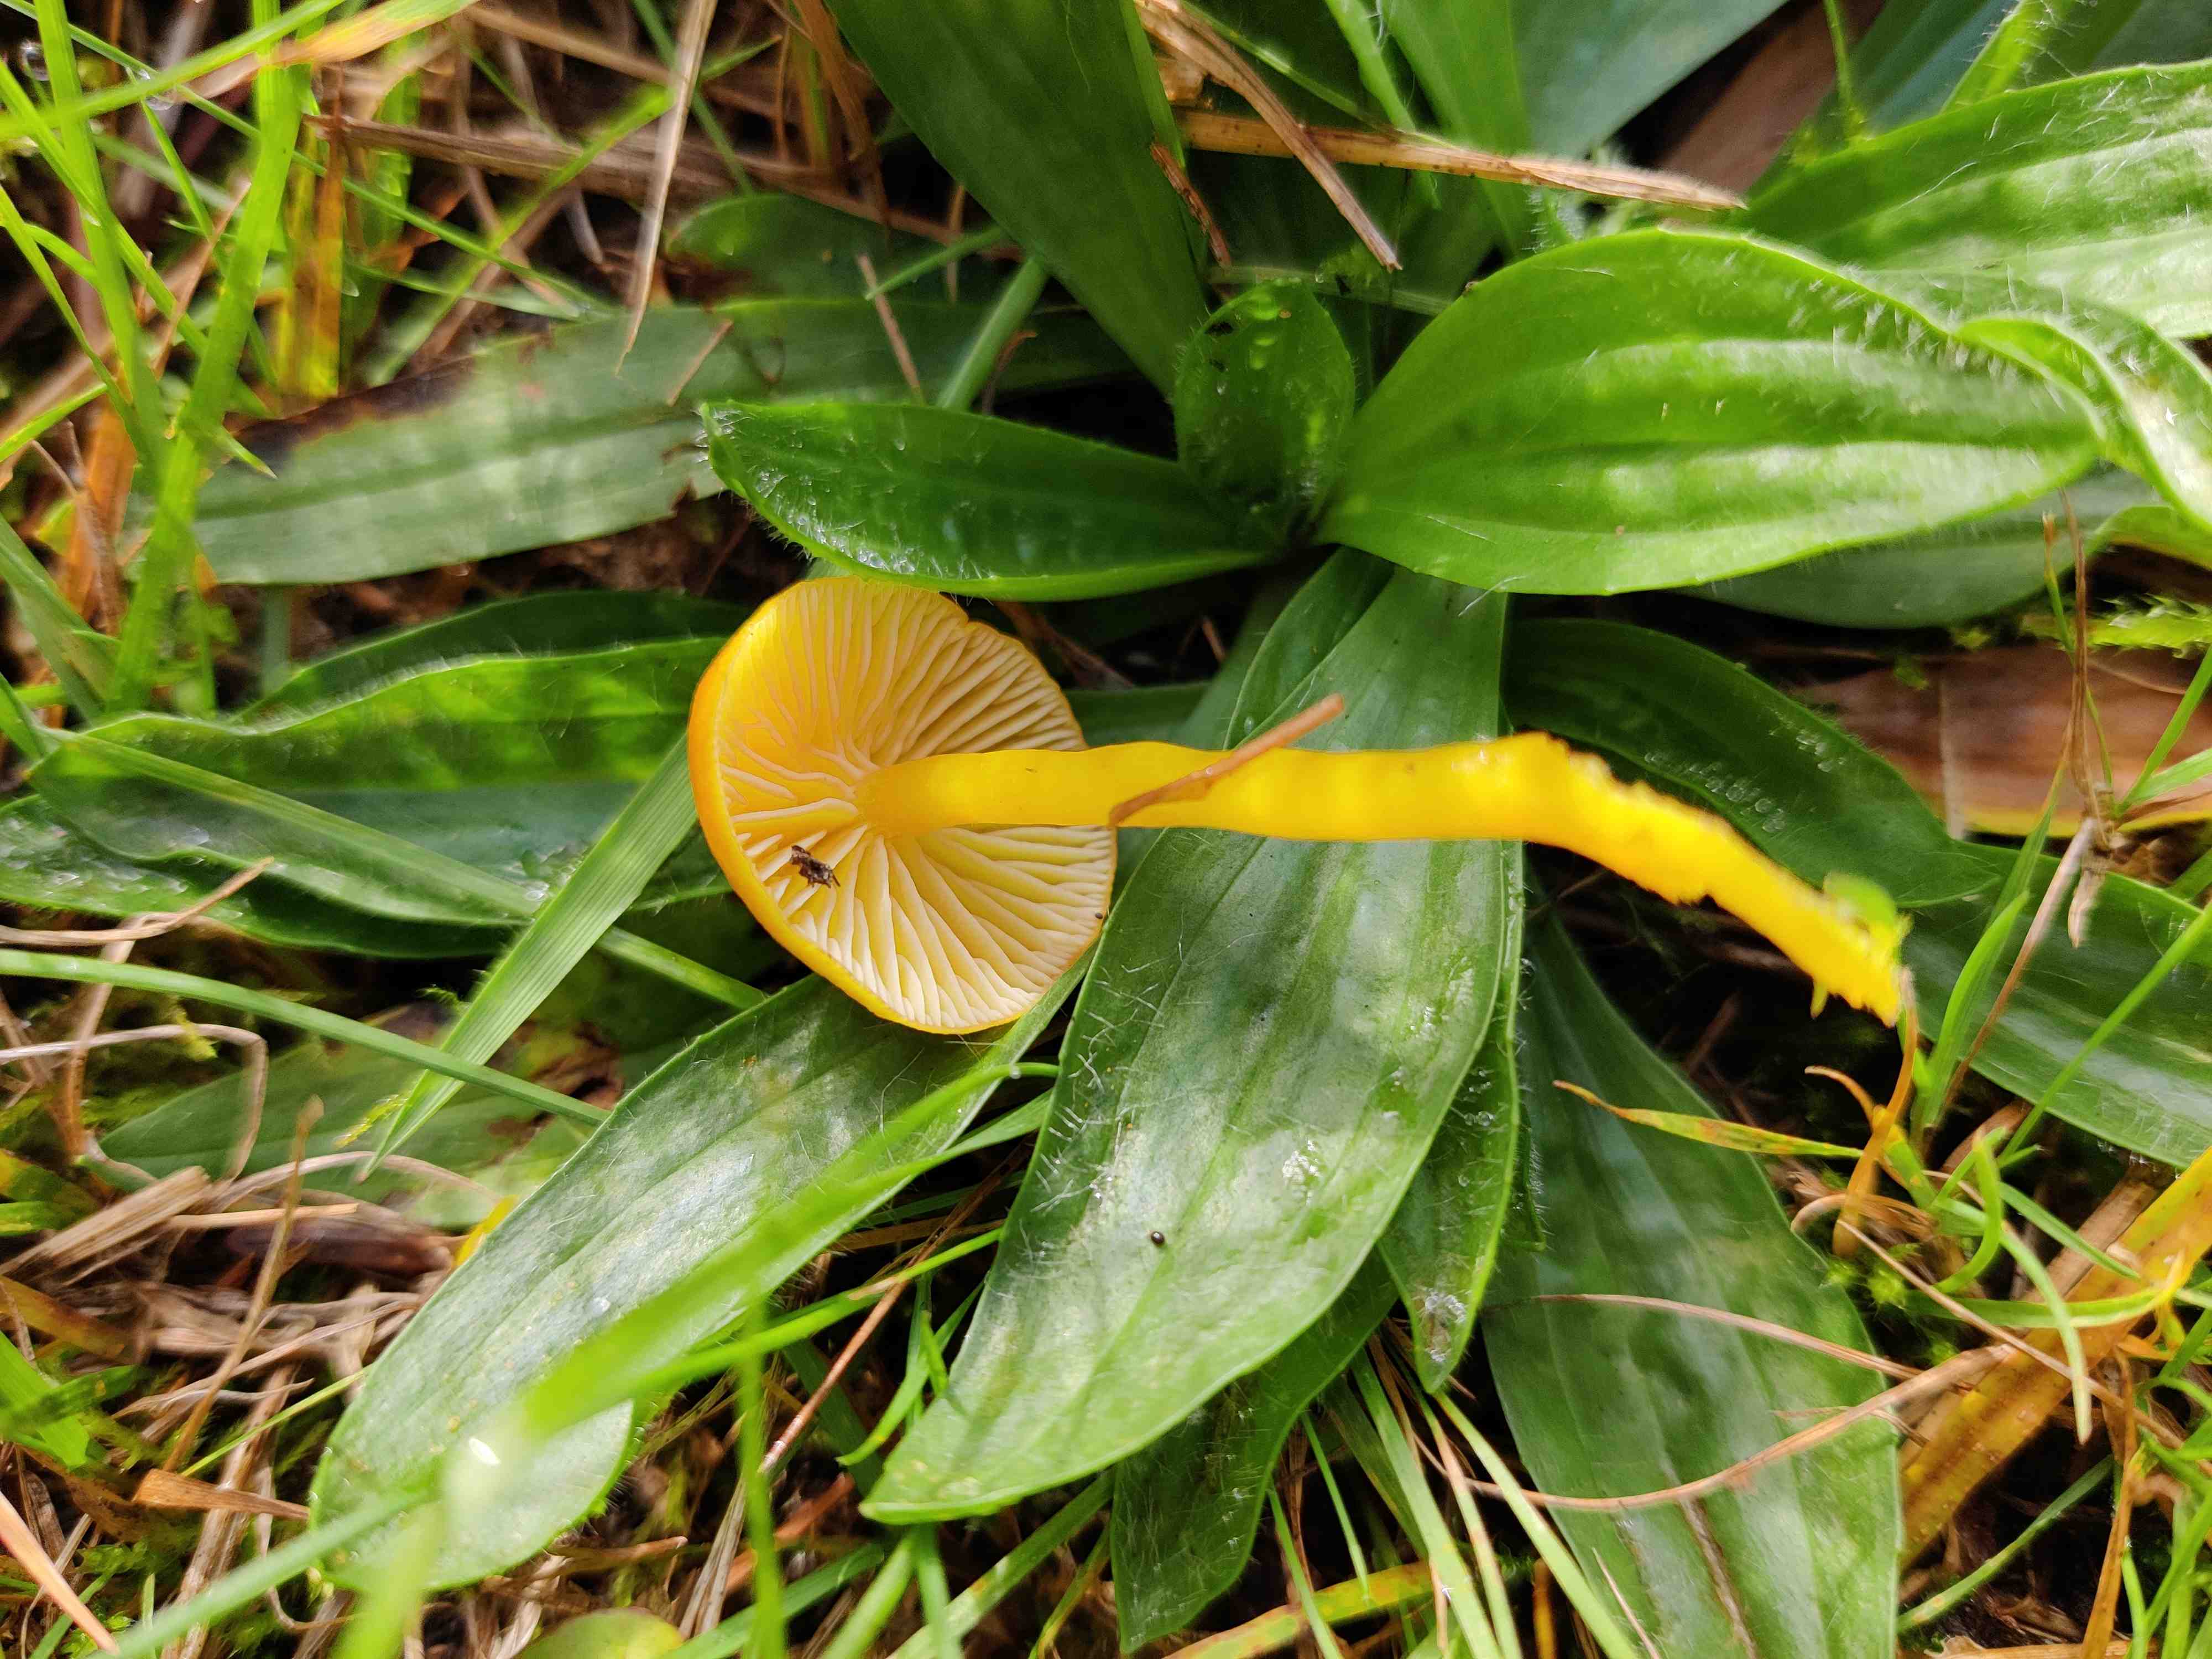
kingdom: Fungi
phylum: Basidiomycota
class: Agaricomycetes
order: Agaricales
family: Hygrophoraceae
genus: Hygrocybe
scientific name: Hygrocybe ceracea
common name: voksgul vokshat
